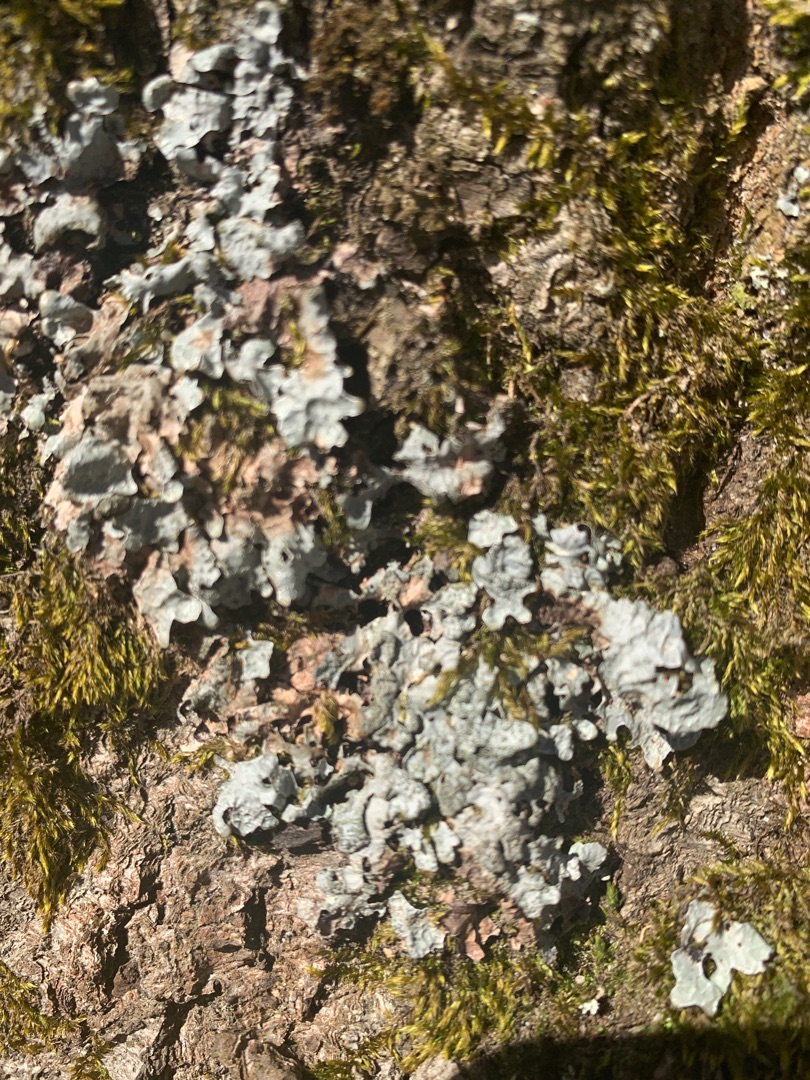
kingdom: Fungi
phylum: Ascomycota
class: Lecanoromycetes
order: Lecanorales
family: Parmeliaceae
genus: Parmelia
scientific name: Parmelia sulcata
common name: Rynket skållav
